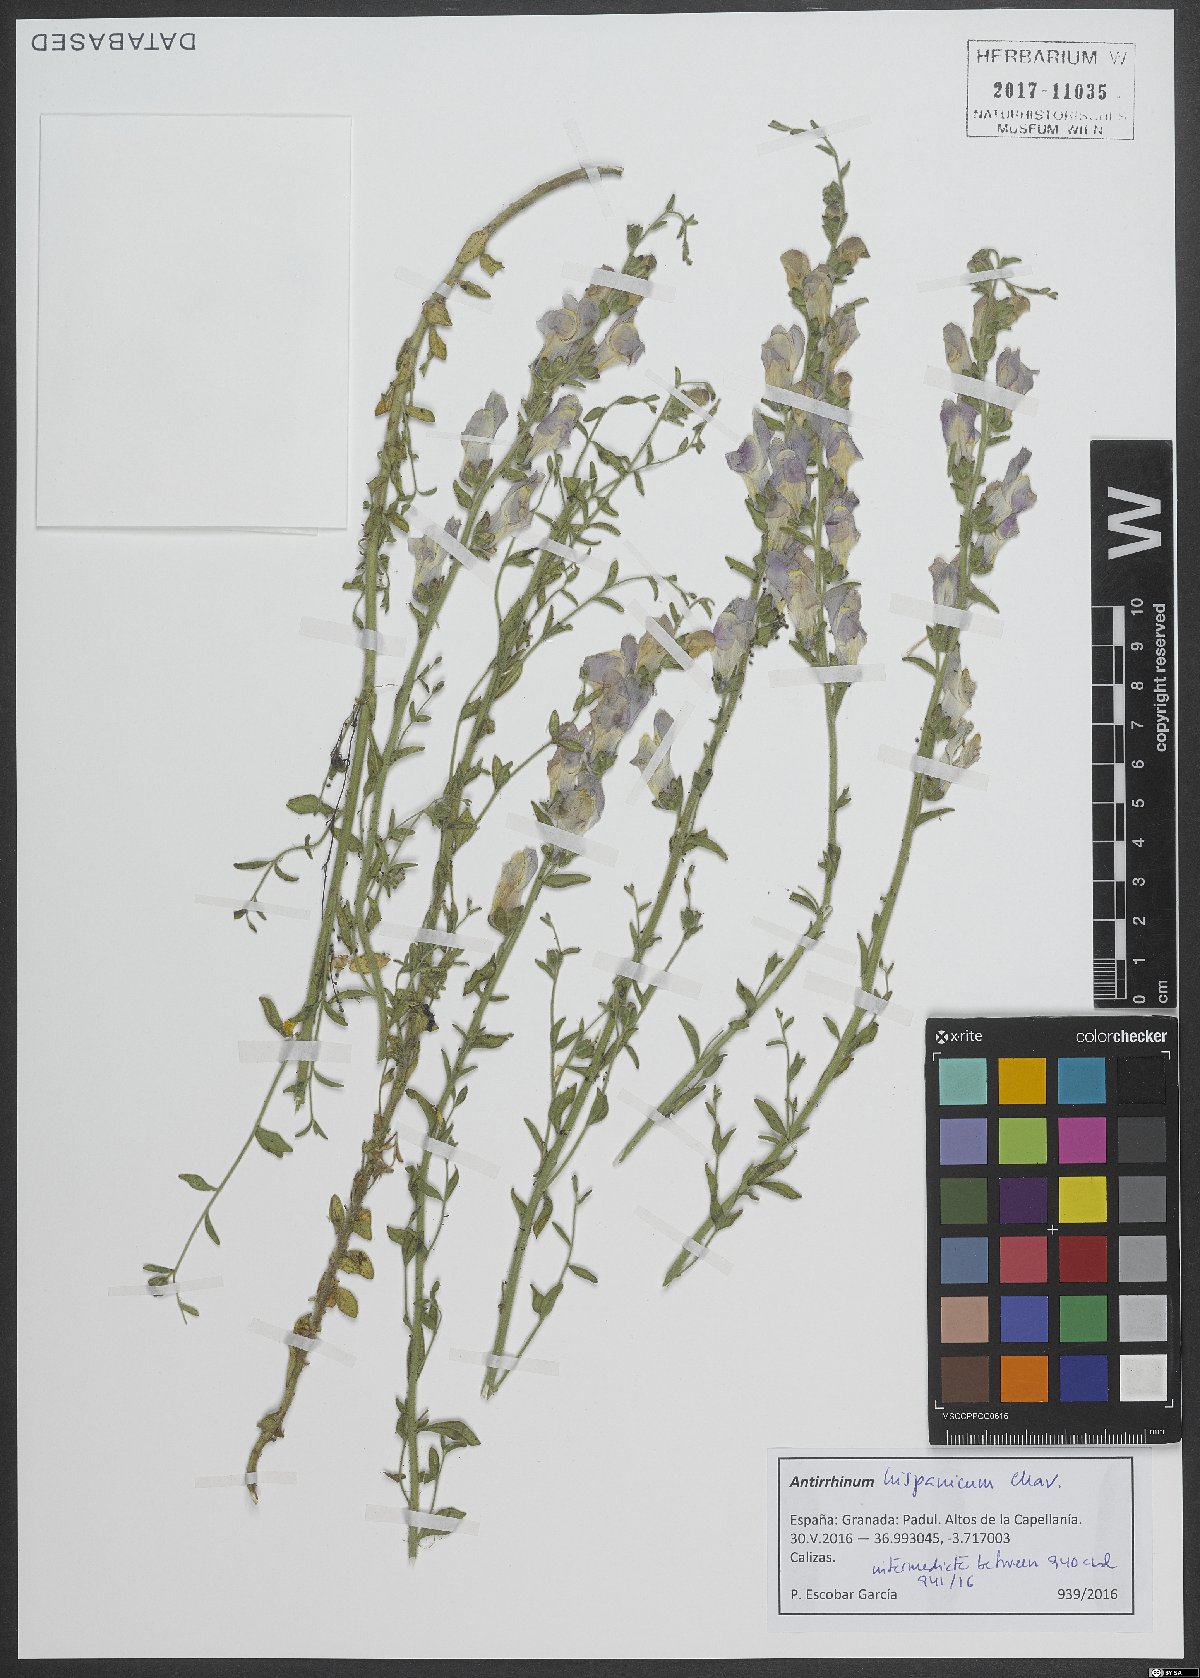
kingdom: Plantae
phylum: Tracheophyta
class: Magnoliopsida
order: Lamiales
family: Plantaginaceae
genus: Antirrhinum
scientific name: Antirrhinum hispanicum
